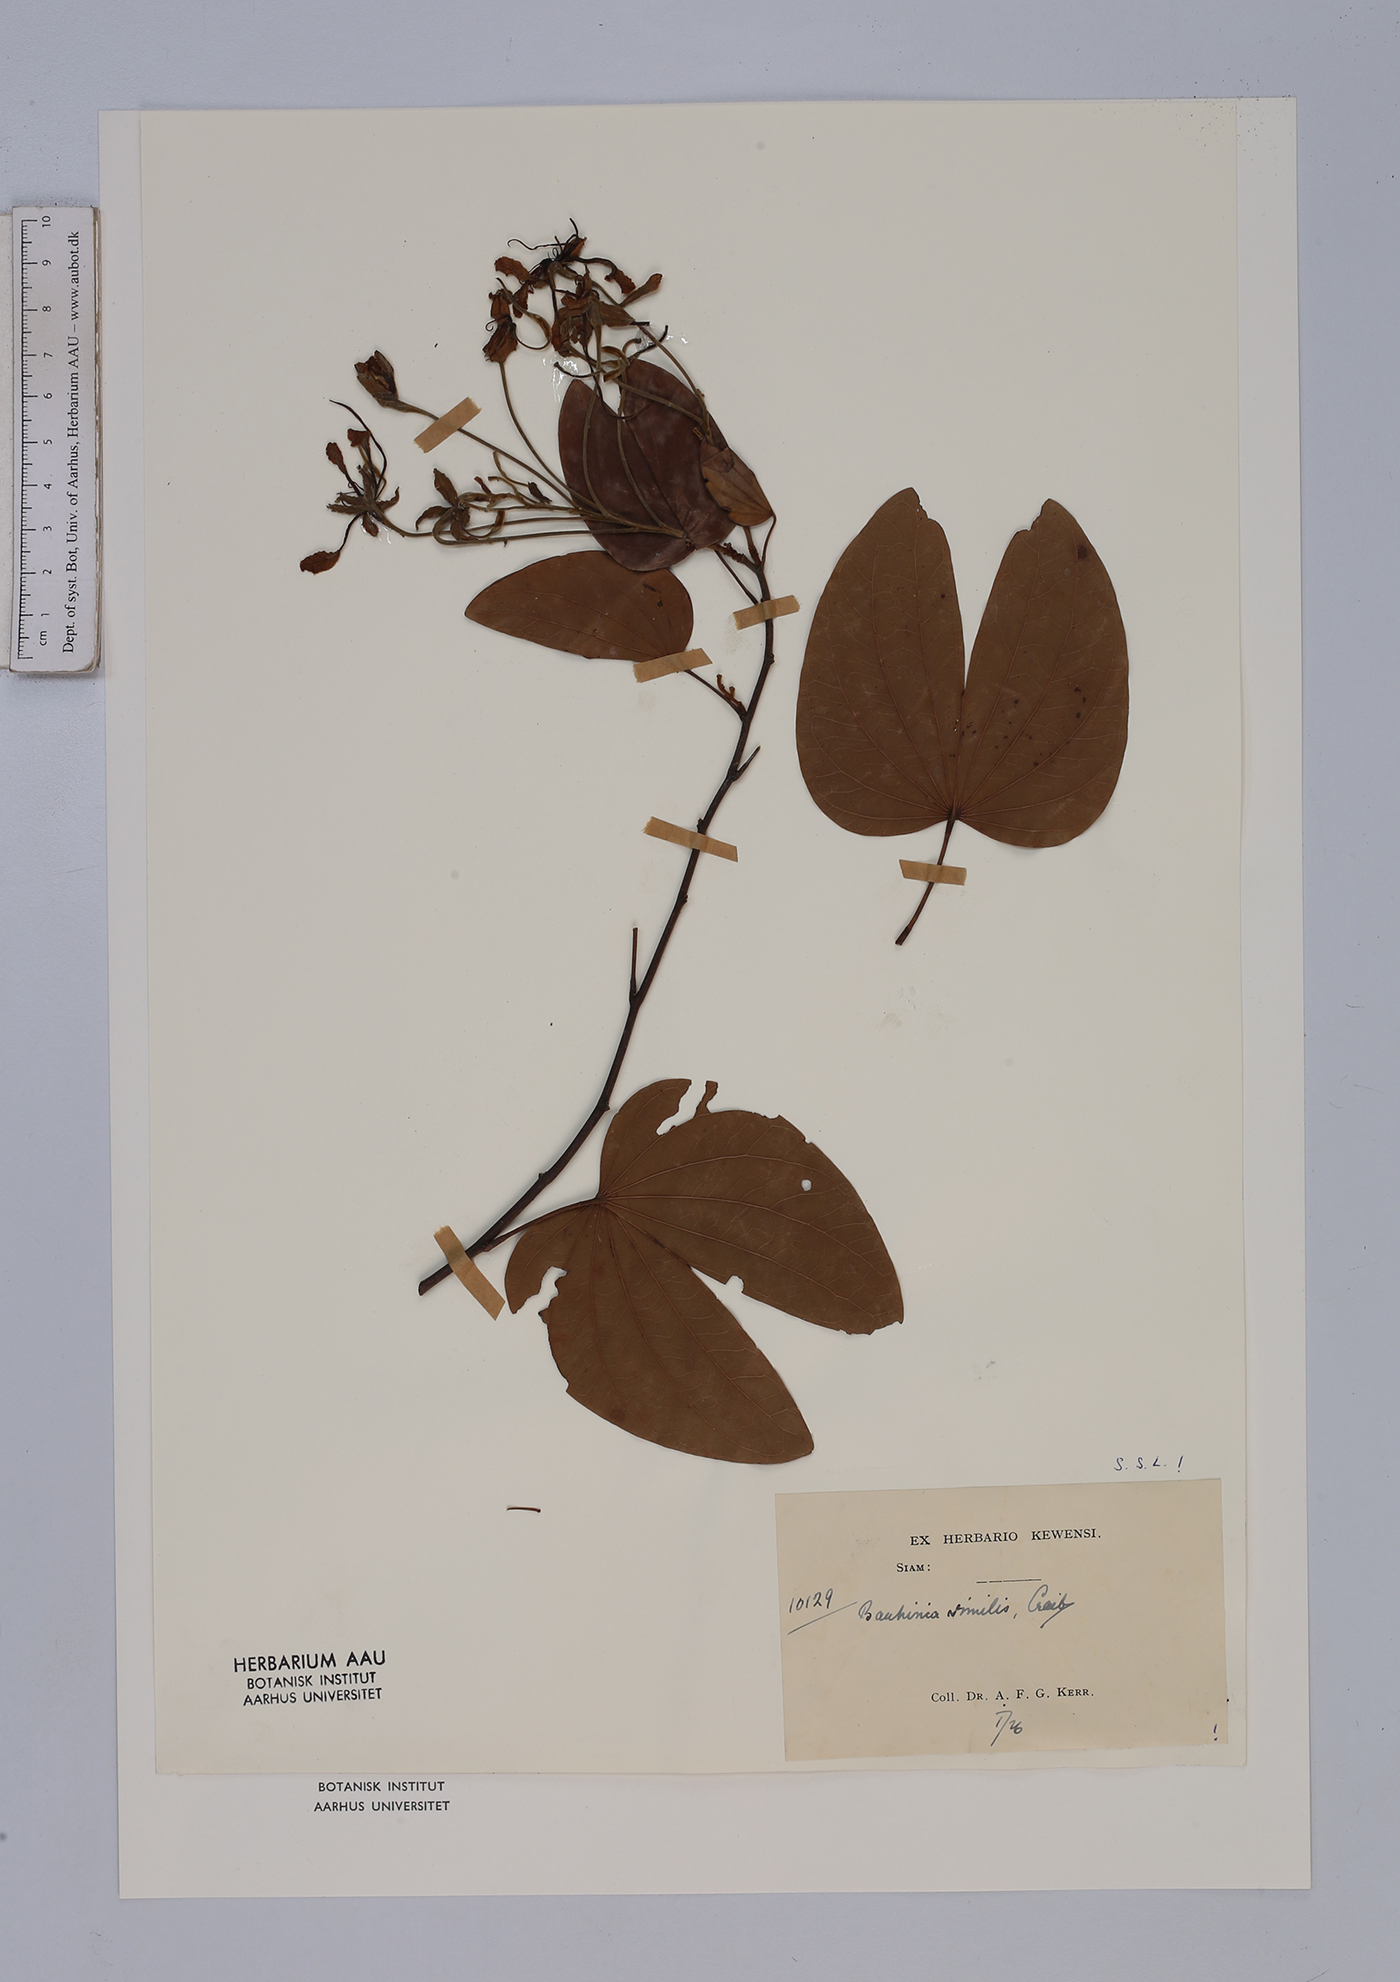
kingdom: Plantae
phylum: Tracheophyta
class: Magnoliopsida
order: Fabales
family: Fabaceae
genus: Phanera
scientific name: Phanera similis
